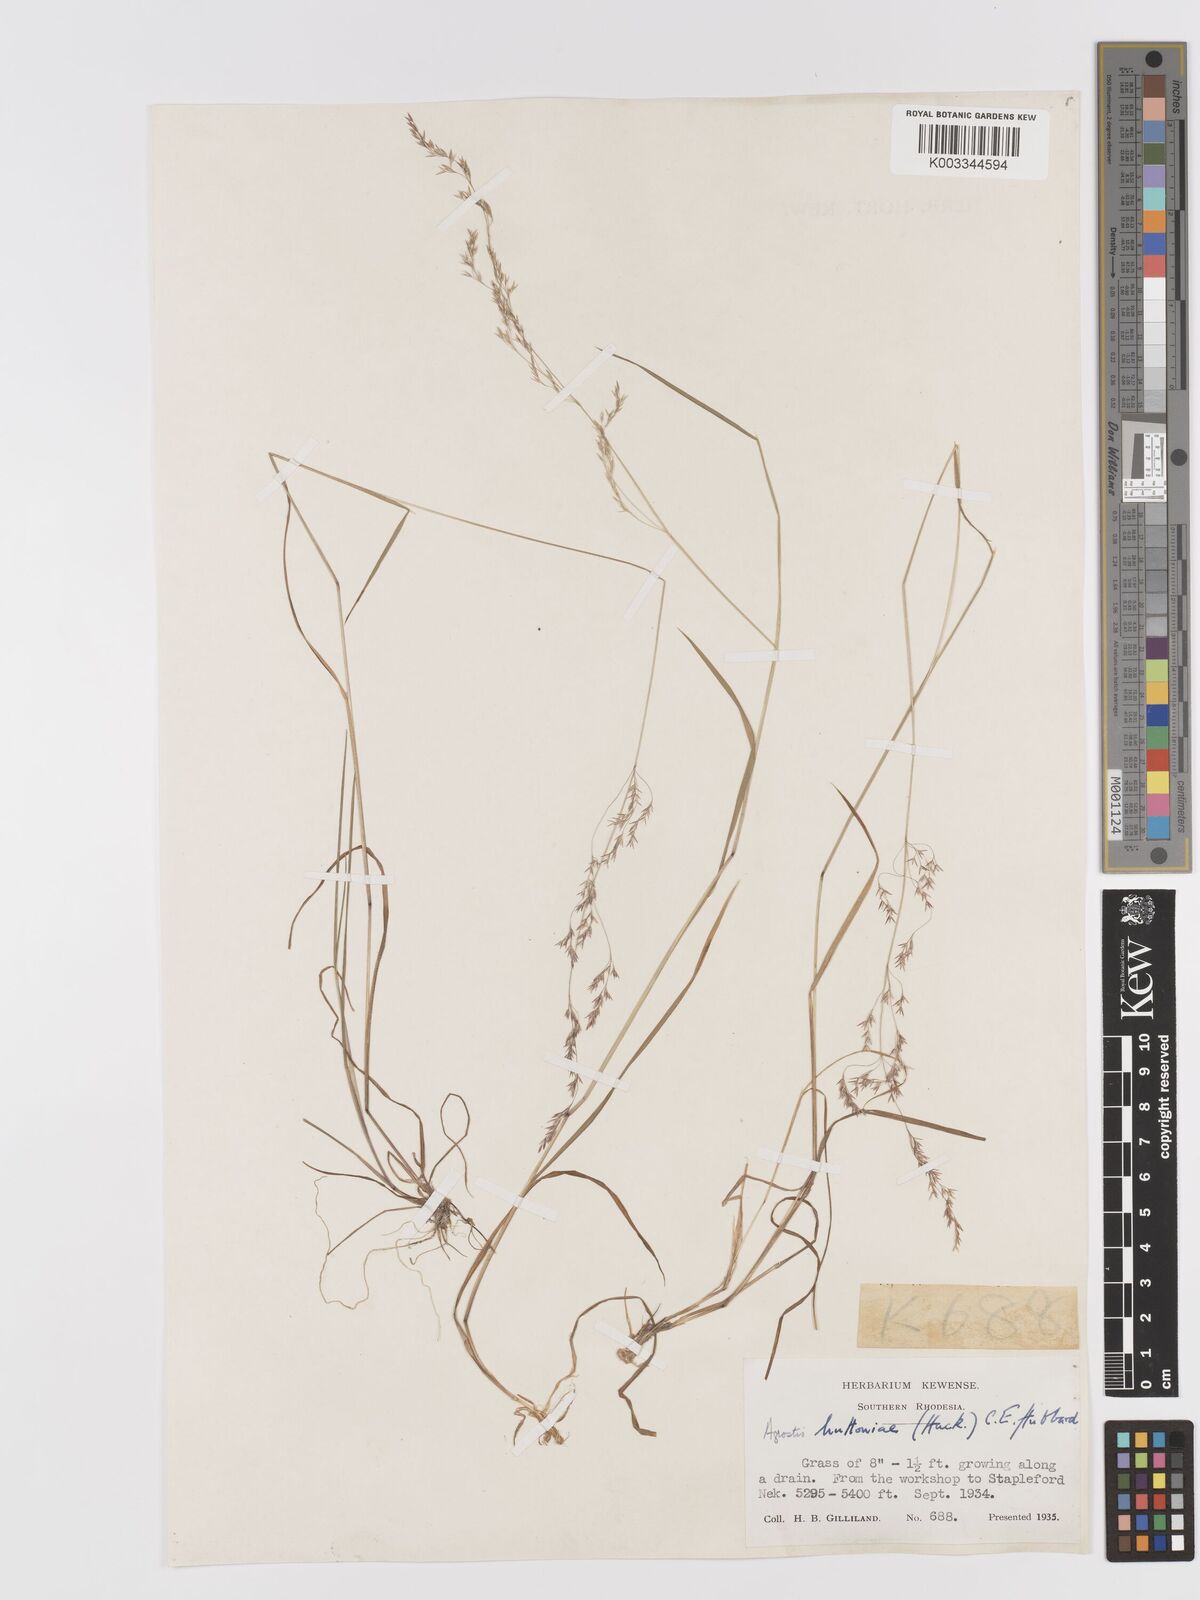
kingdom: Plantae
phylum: Tracheophyta
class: Liliopsida
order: Poales
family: Poaceae
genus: Lachnagrostis
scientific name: Lachnagrostis lachnantha
